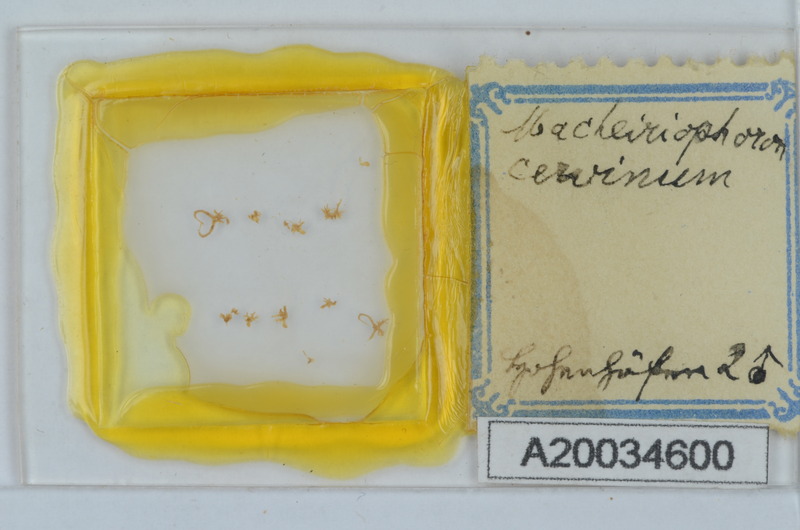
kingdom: Animalia
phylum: Arthropoda
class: Diplopoda
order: Chordeumatida
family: Craspedosomatidae
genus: Rhymogona
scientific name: Rhymogona montivaga
